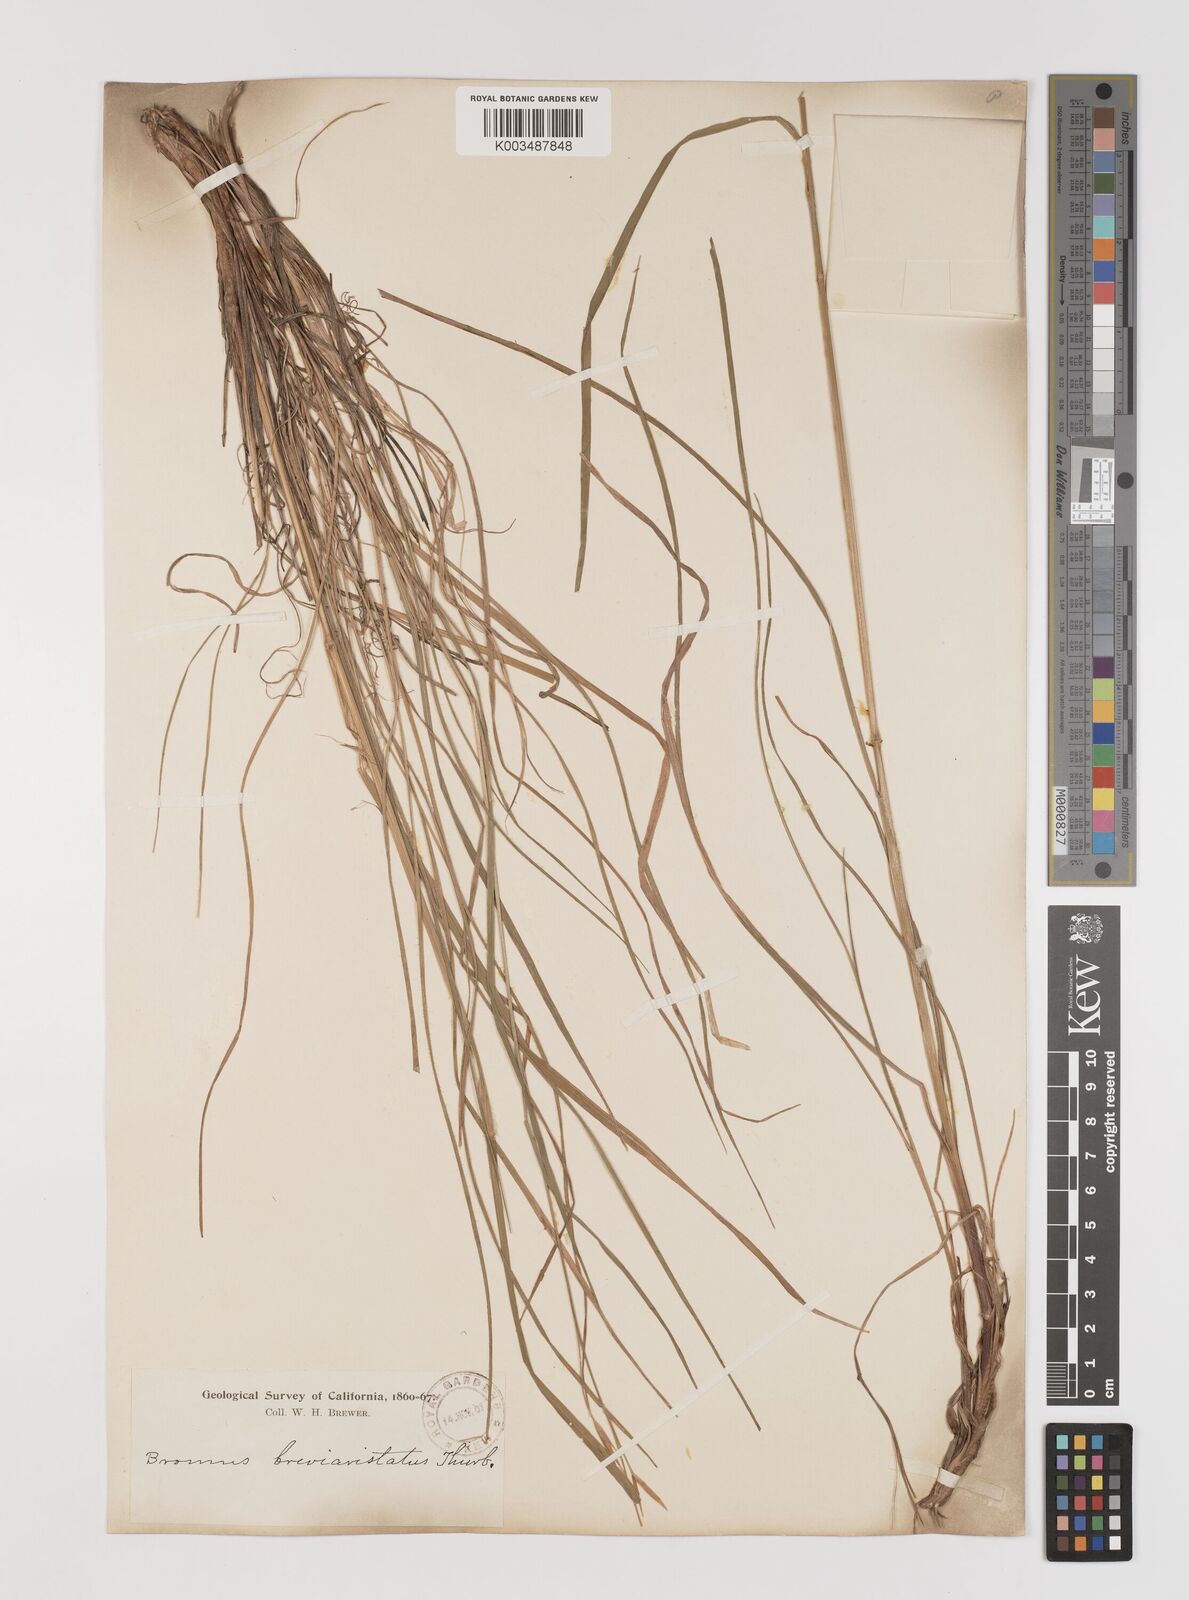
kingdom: Plantae
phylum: Tracheophyta
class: Liliopsida
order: Poales
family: Poaceae
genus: Bromus
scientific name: Bromus catharticus
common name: Rescuegrass
